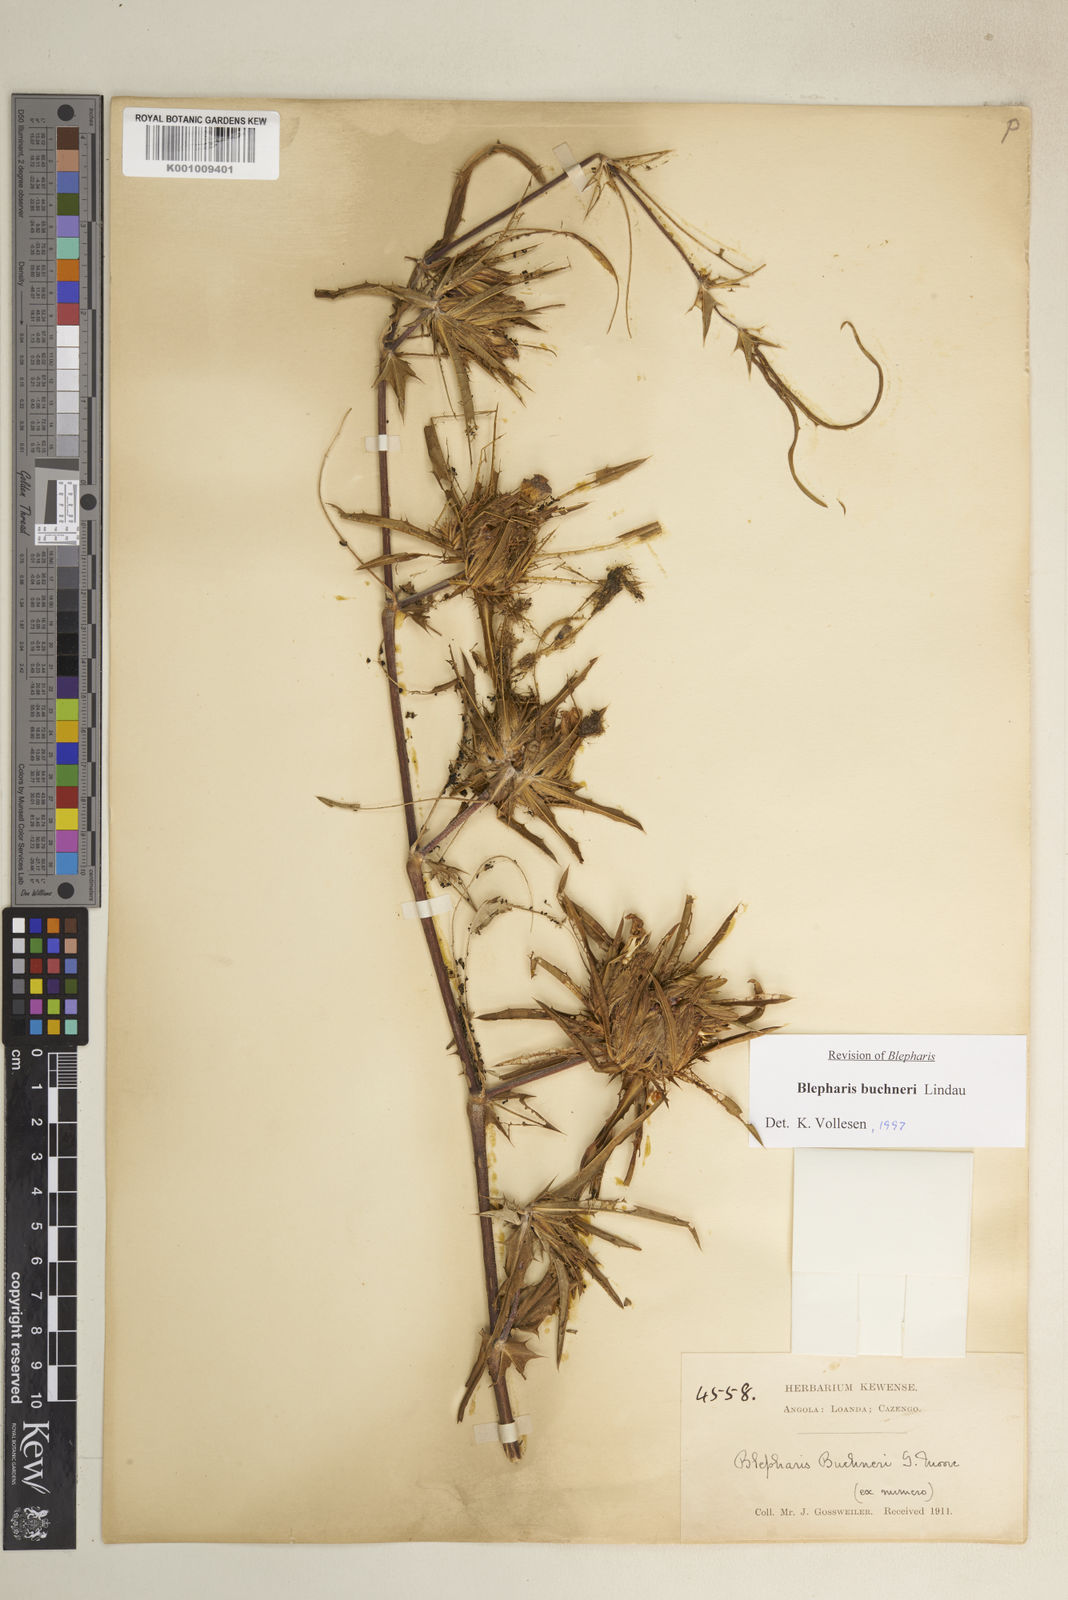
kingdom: Plantae
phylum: Tracheophyta
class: Magnoliopsida
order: Lamiales
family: Acanthaceae
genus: Blepharis
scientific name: Blepharis buchneri
